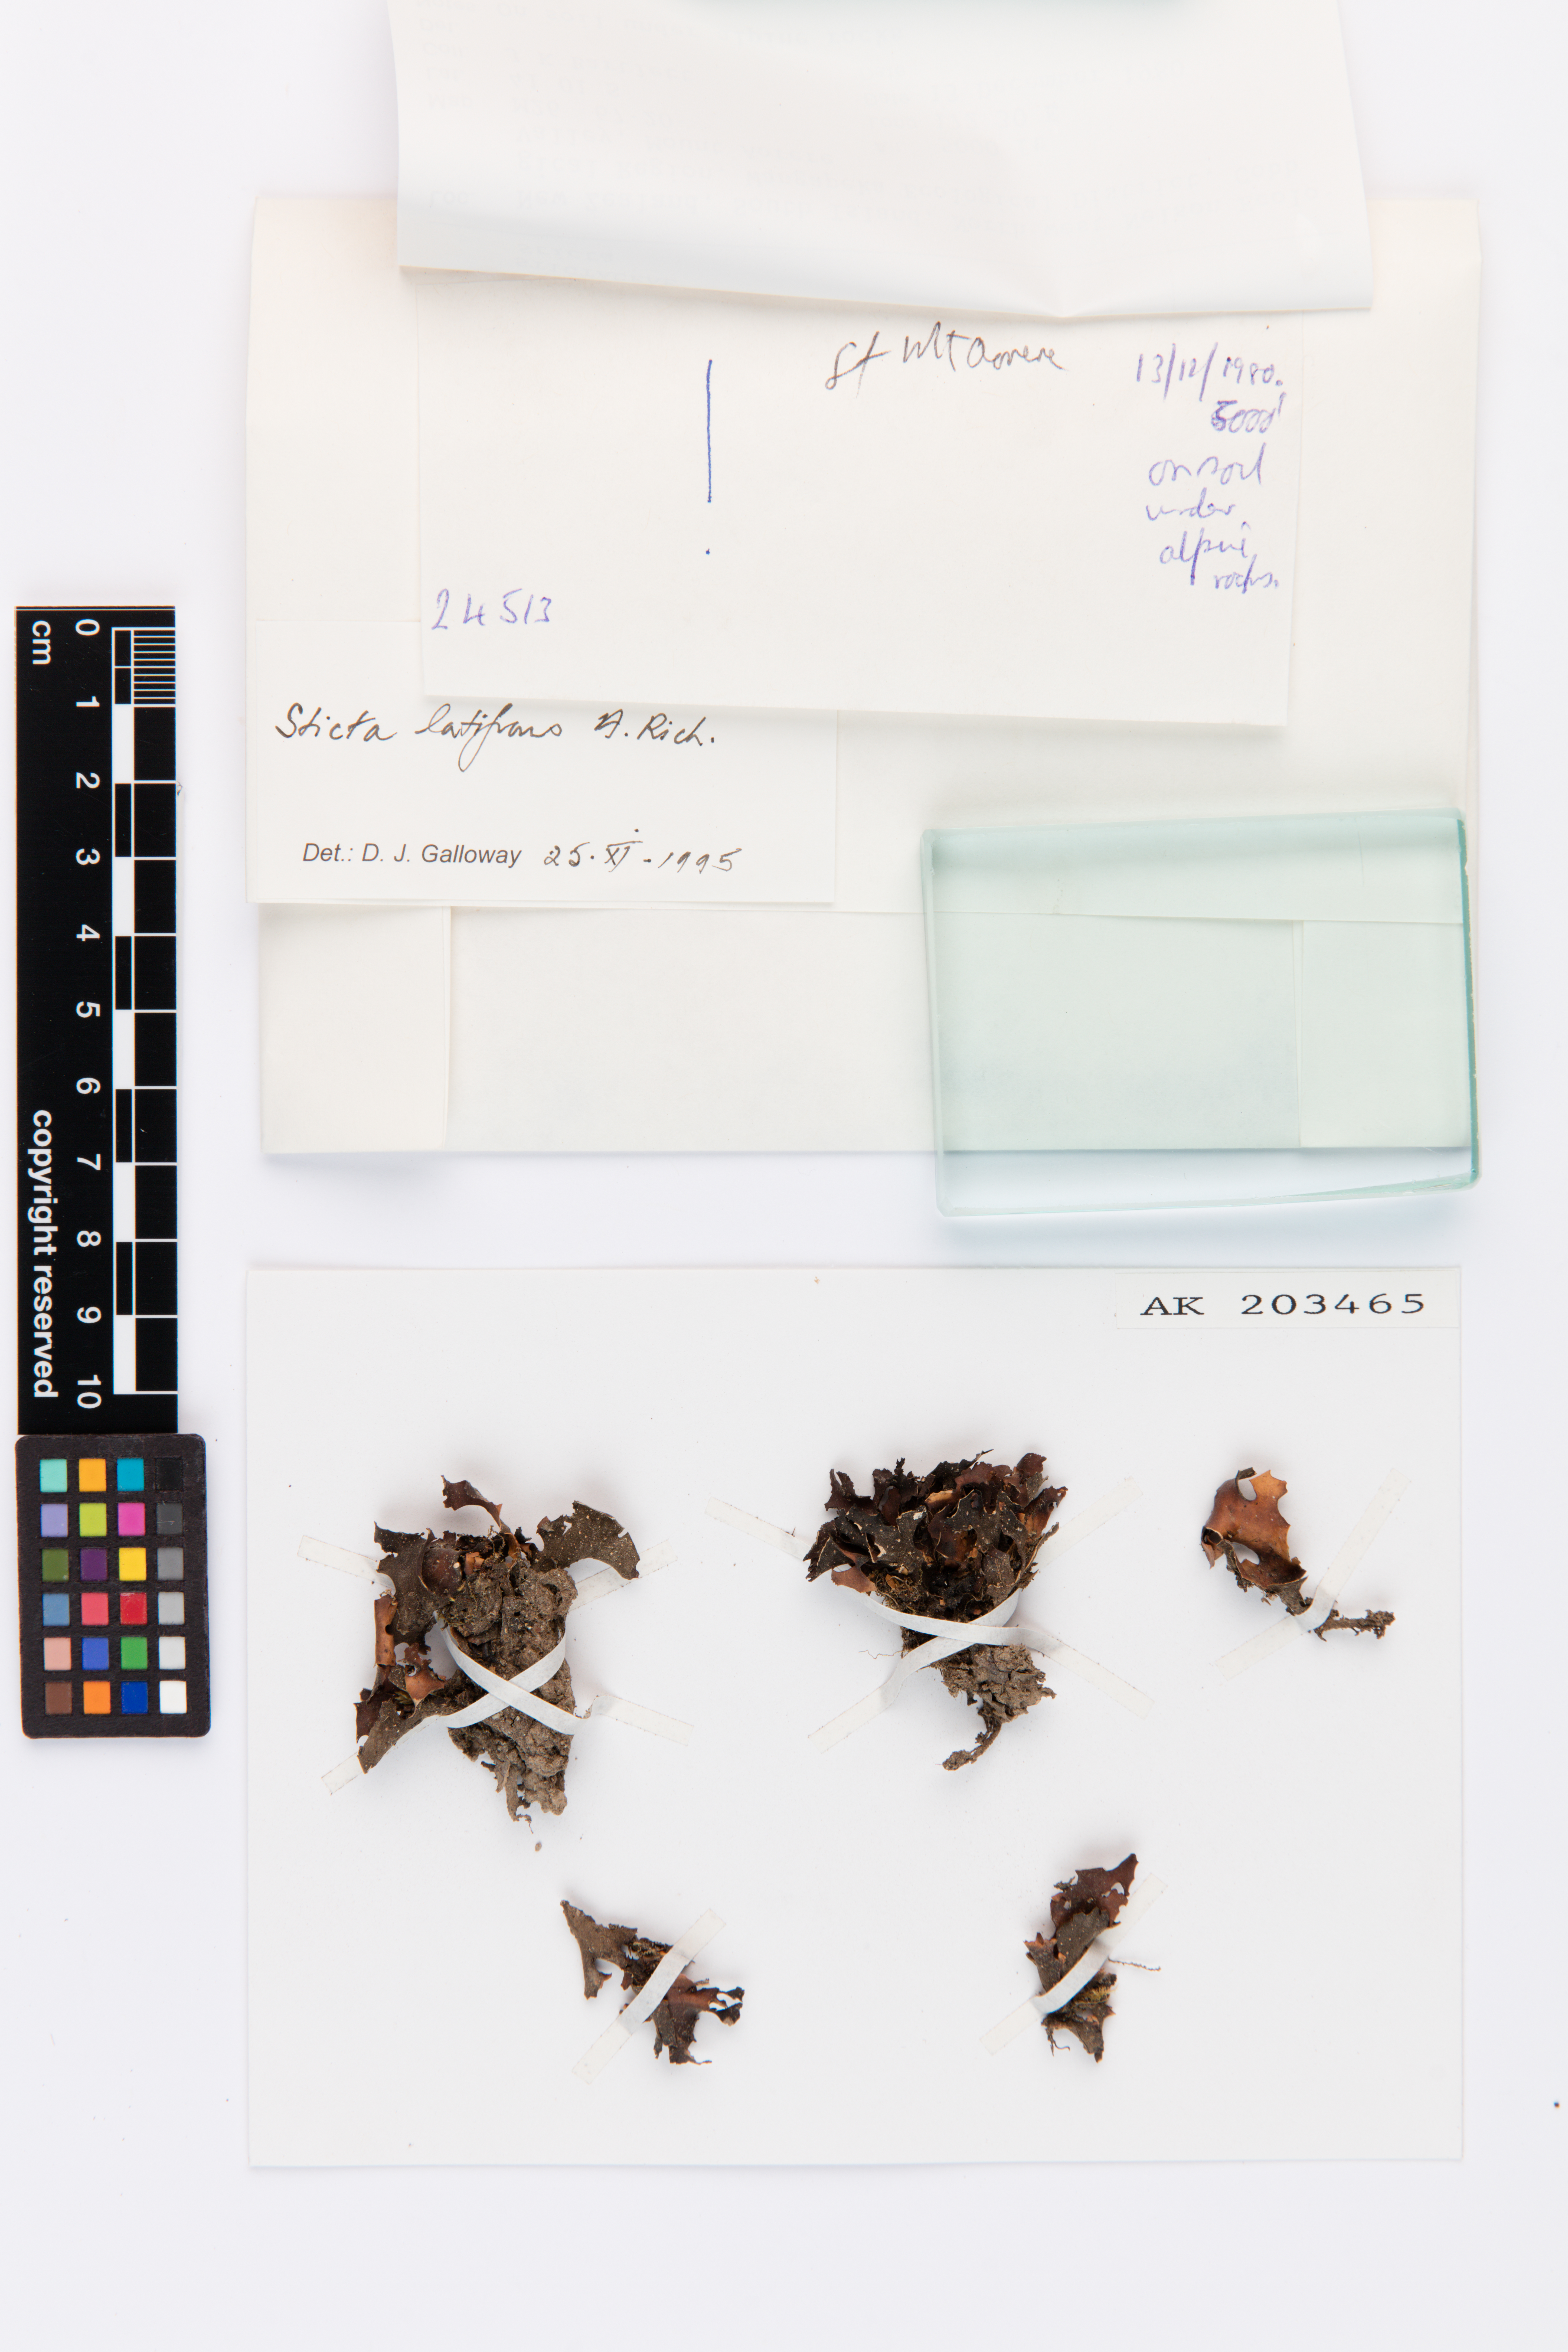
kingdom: Fungi
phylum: Ascomycota
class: Lecanoromycetes
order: Peltigerales
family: Lobariaceae
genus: Sticta
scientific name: Sticta latifrons
